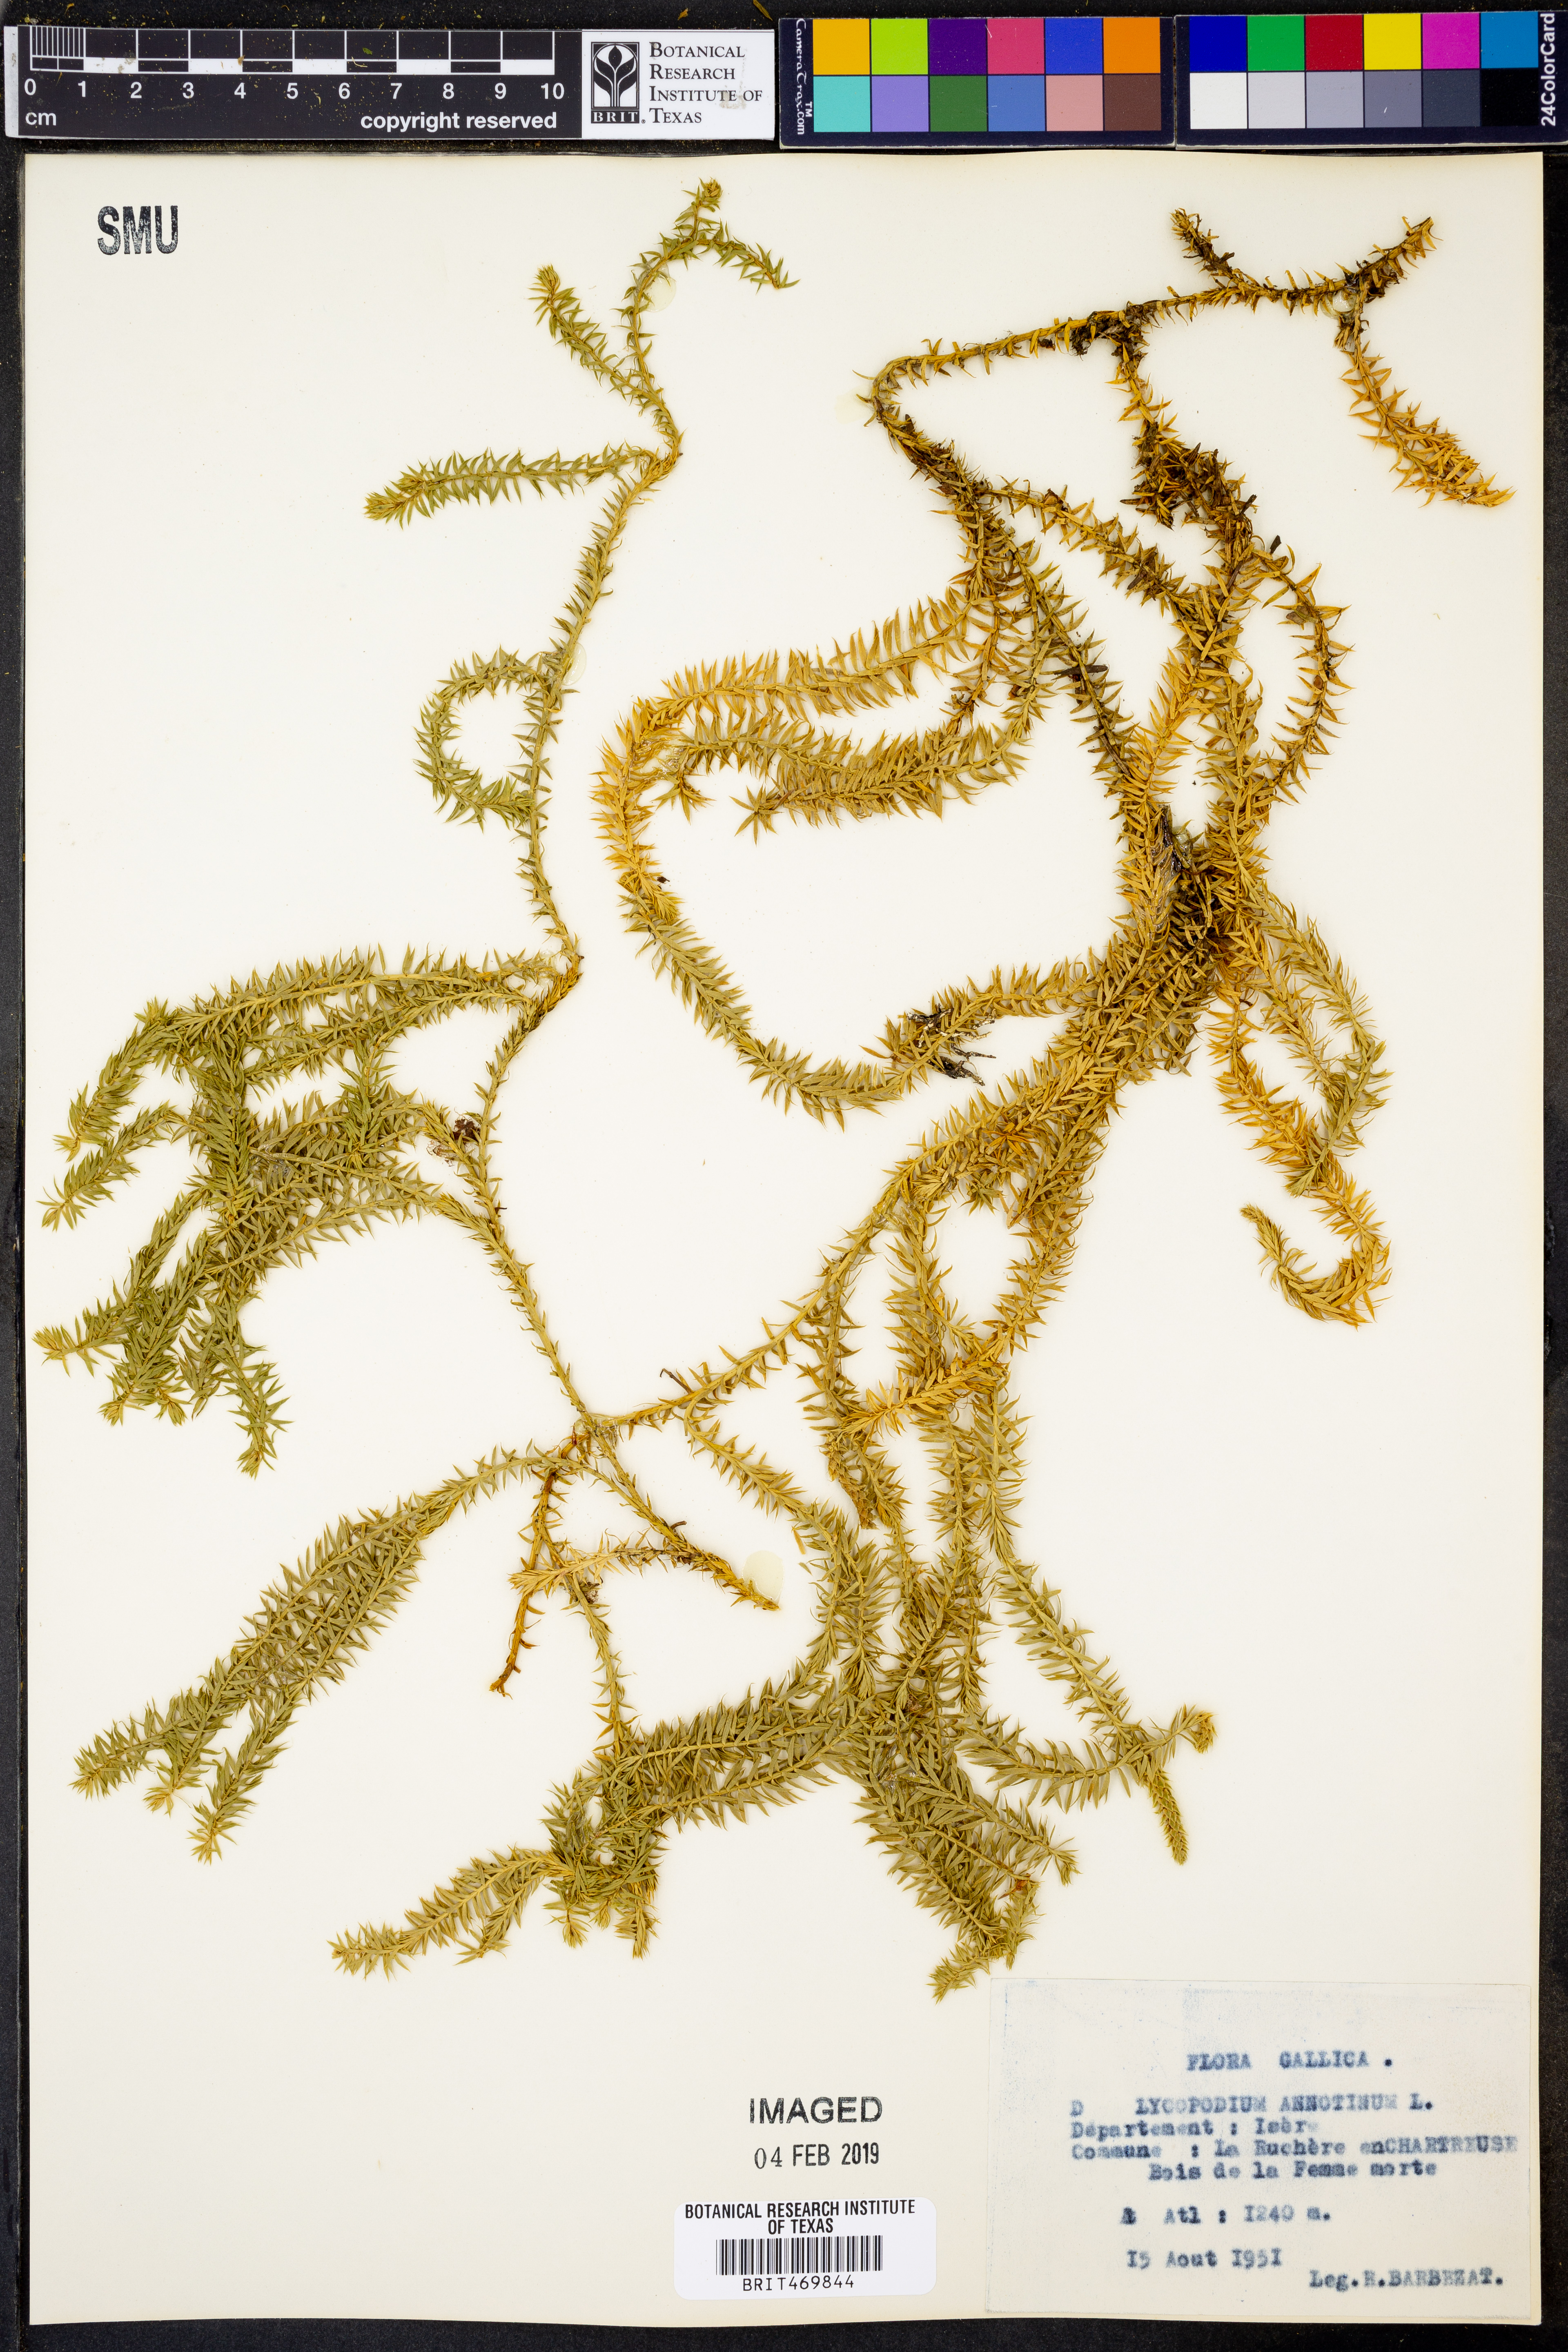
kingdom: Plantae
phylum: Tracheophyta
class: Lycopodiopsida
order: Lycopodiales
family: Lycopodiaceae
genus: Spinulum
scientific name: Spinulum annotinum
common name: Interrupted club-moss
